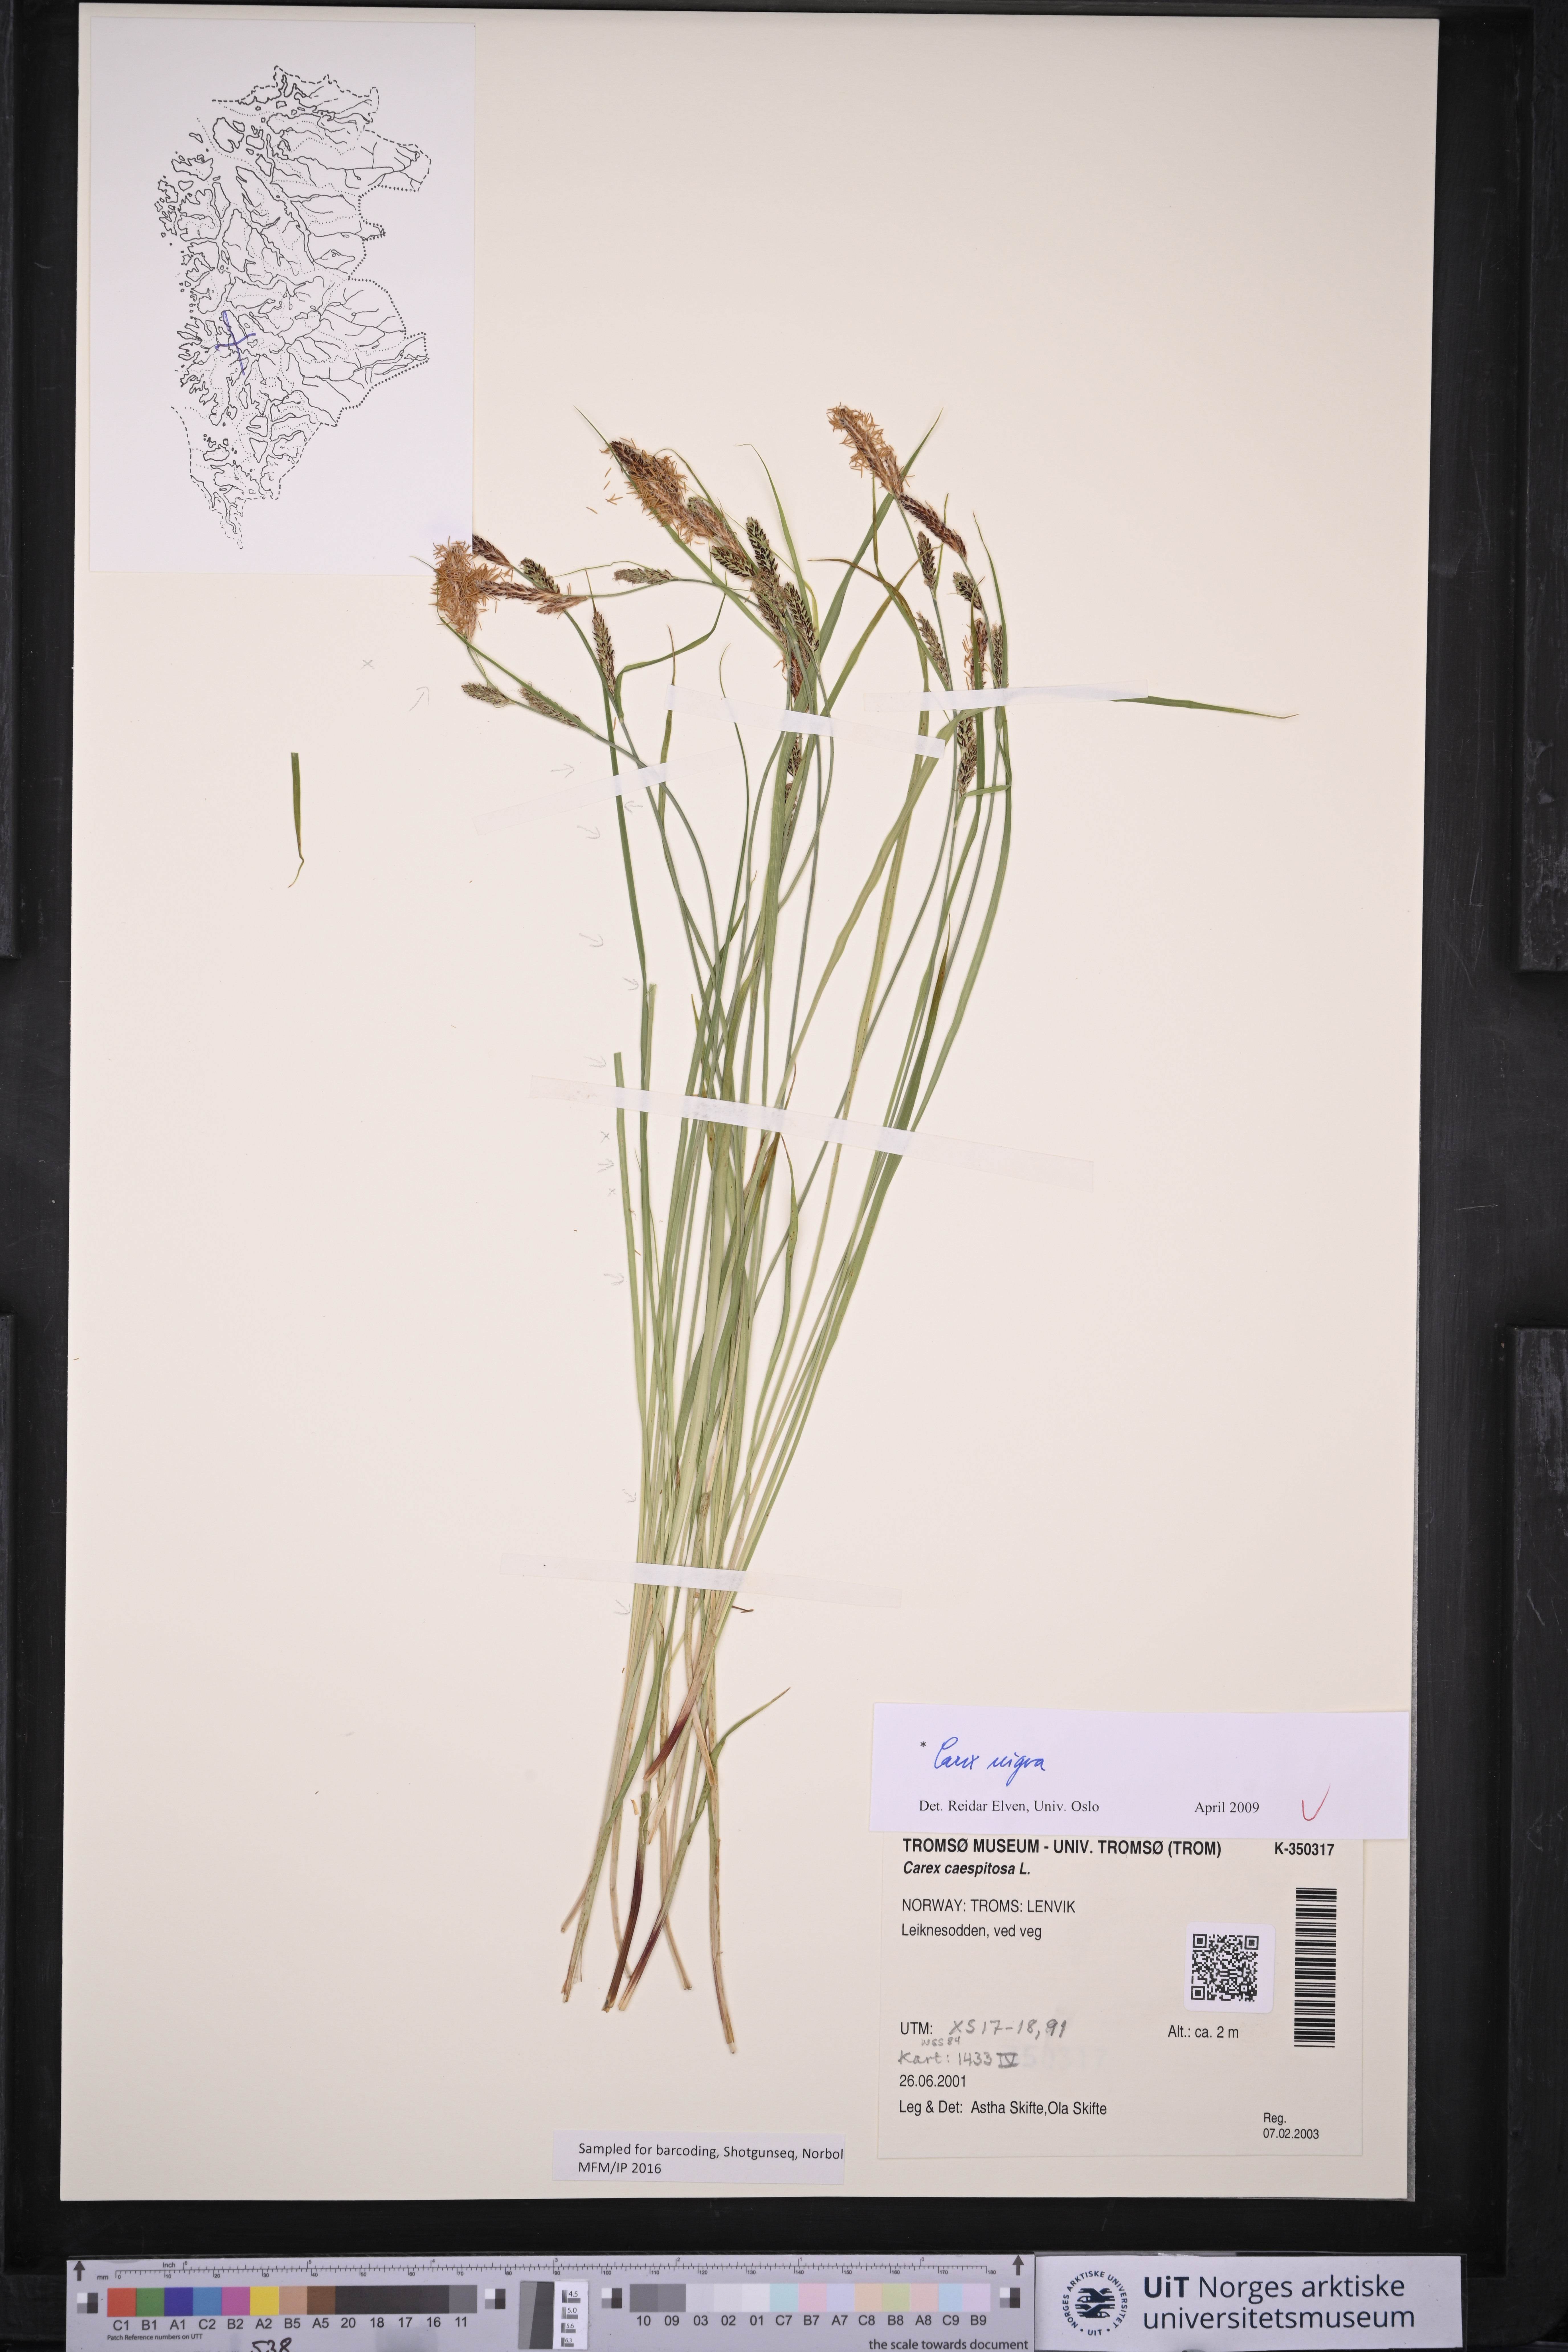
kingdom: Plantae
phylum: Tracheophyta
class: Liliopsida
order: Poales
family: Cyperaceae
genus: Carex
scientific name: Carex nigra
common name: Common sedge
